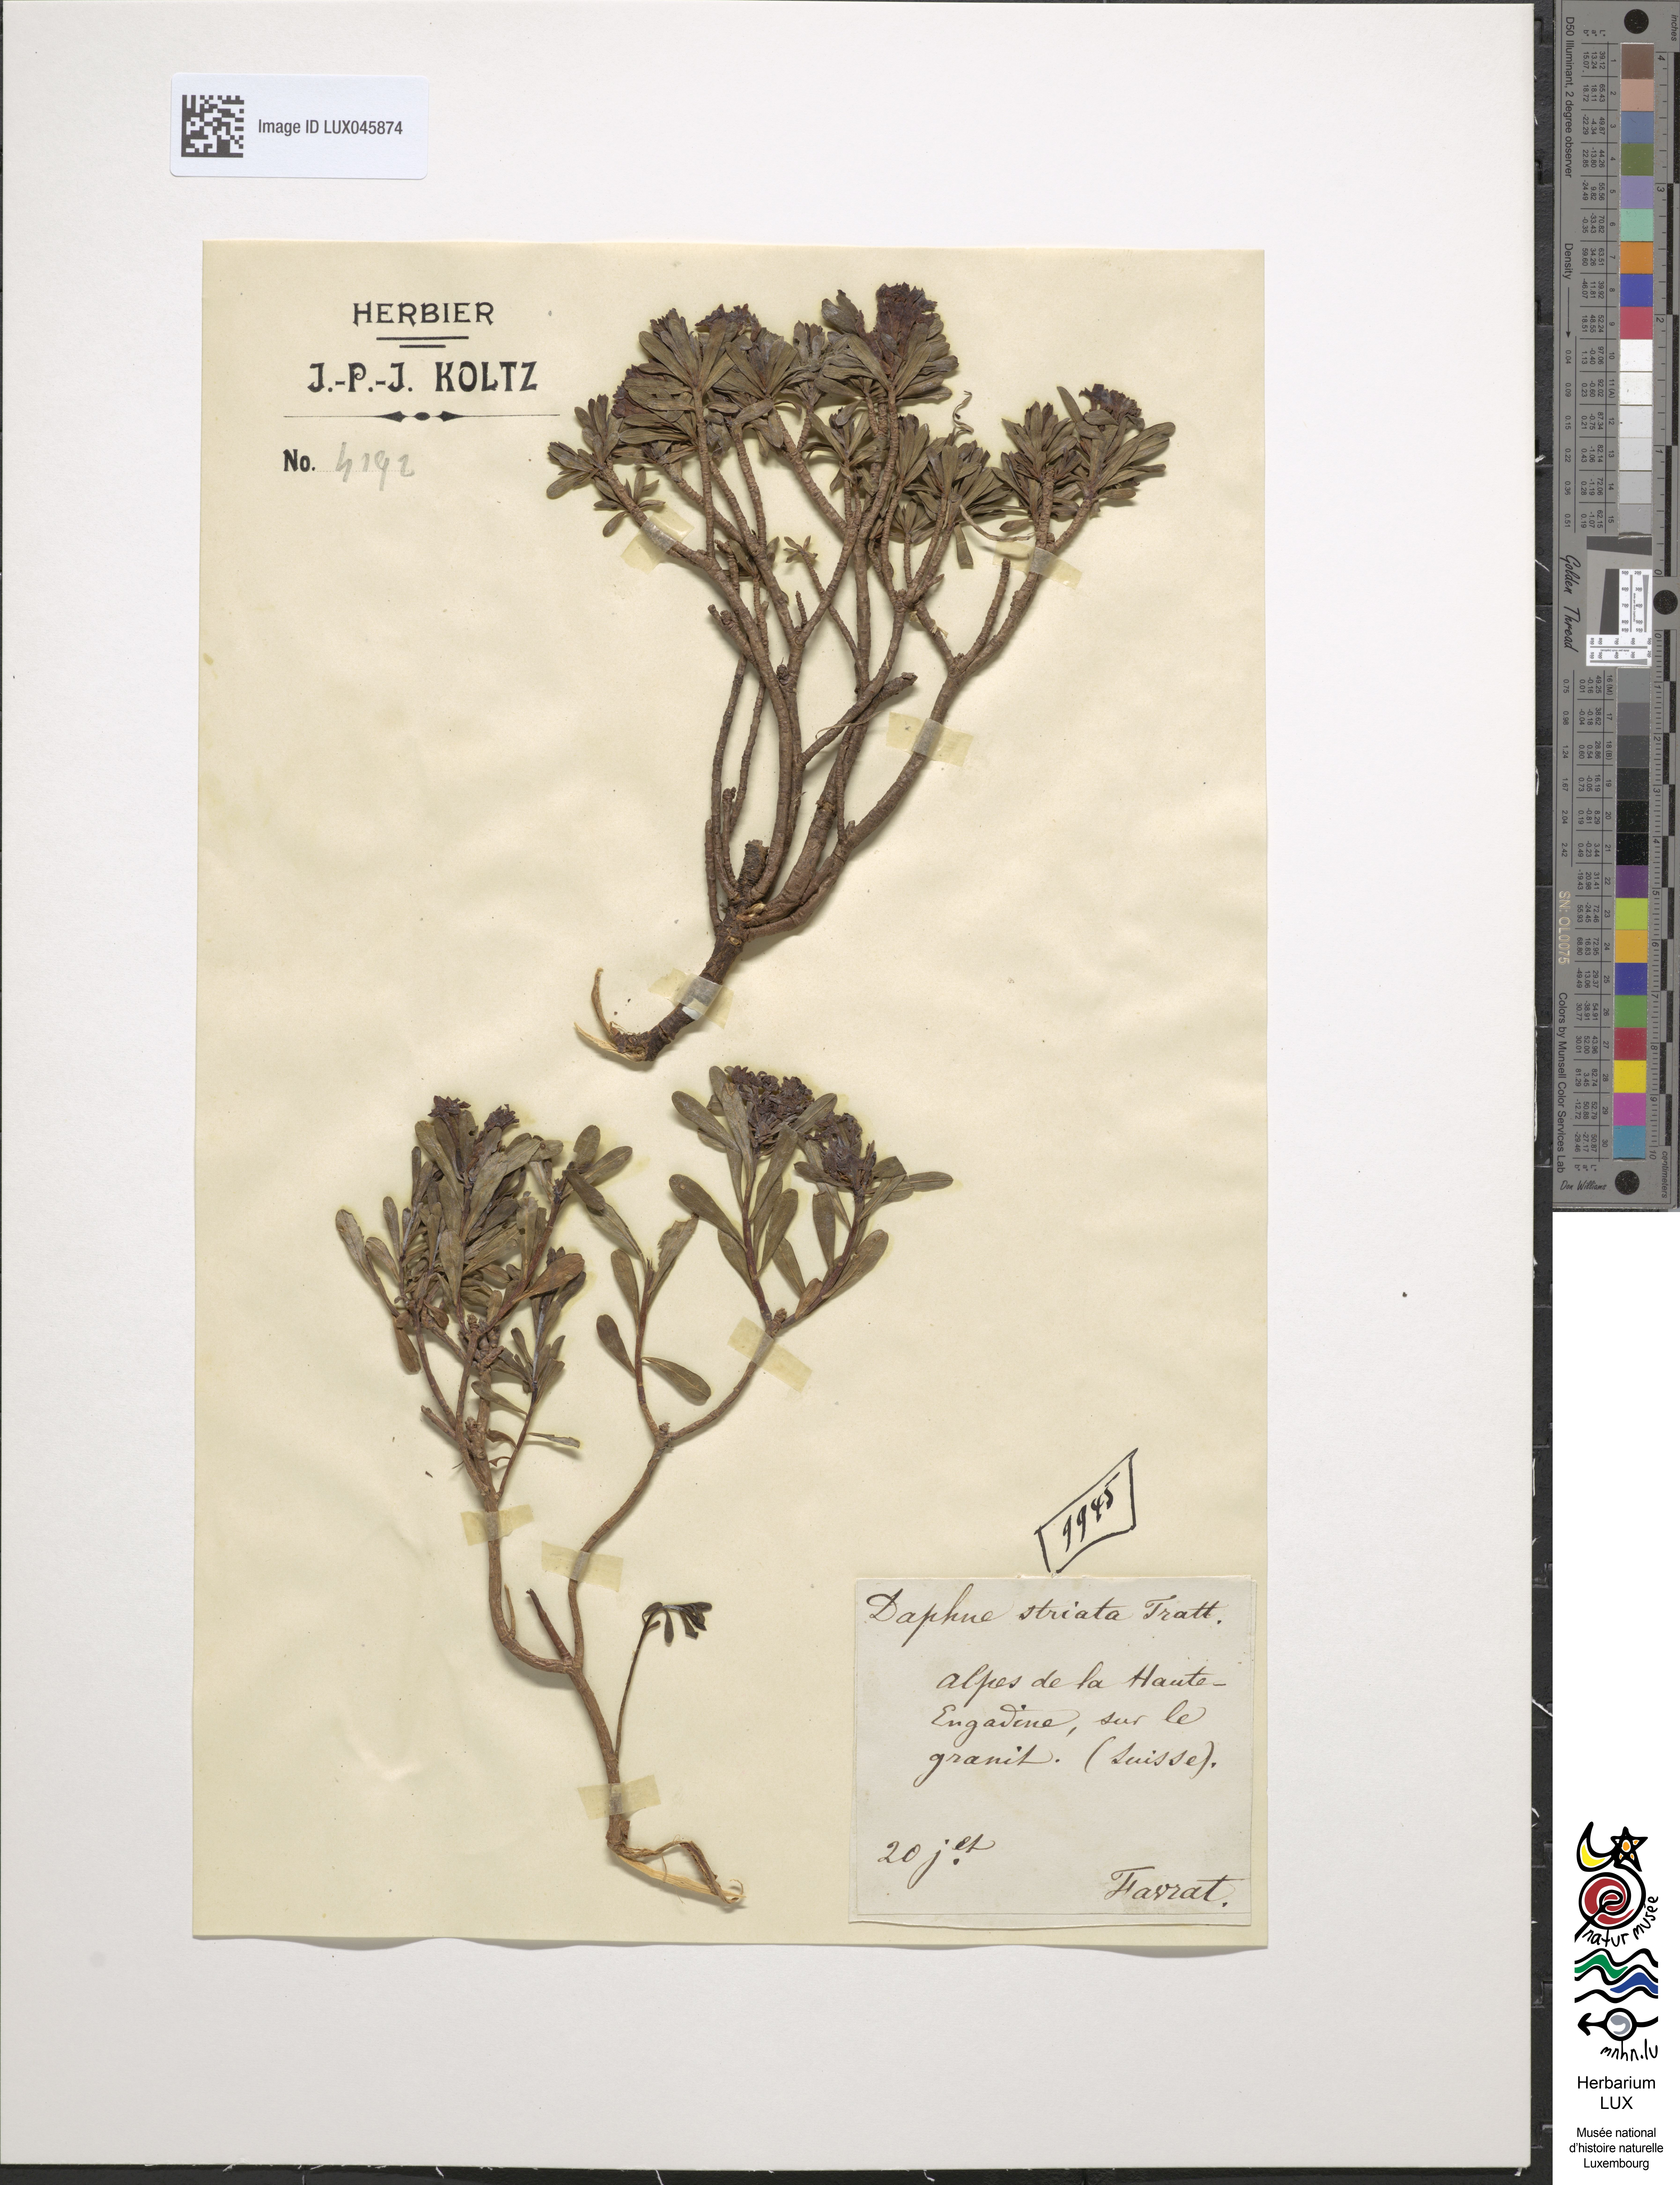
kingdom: Plantae
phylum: Tracheophyta
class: Magnoliopsida
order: Malvales
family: Thymelaeaceae
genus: Daphne
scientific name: Daphne striata
